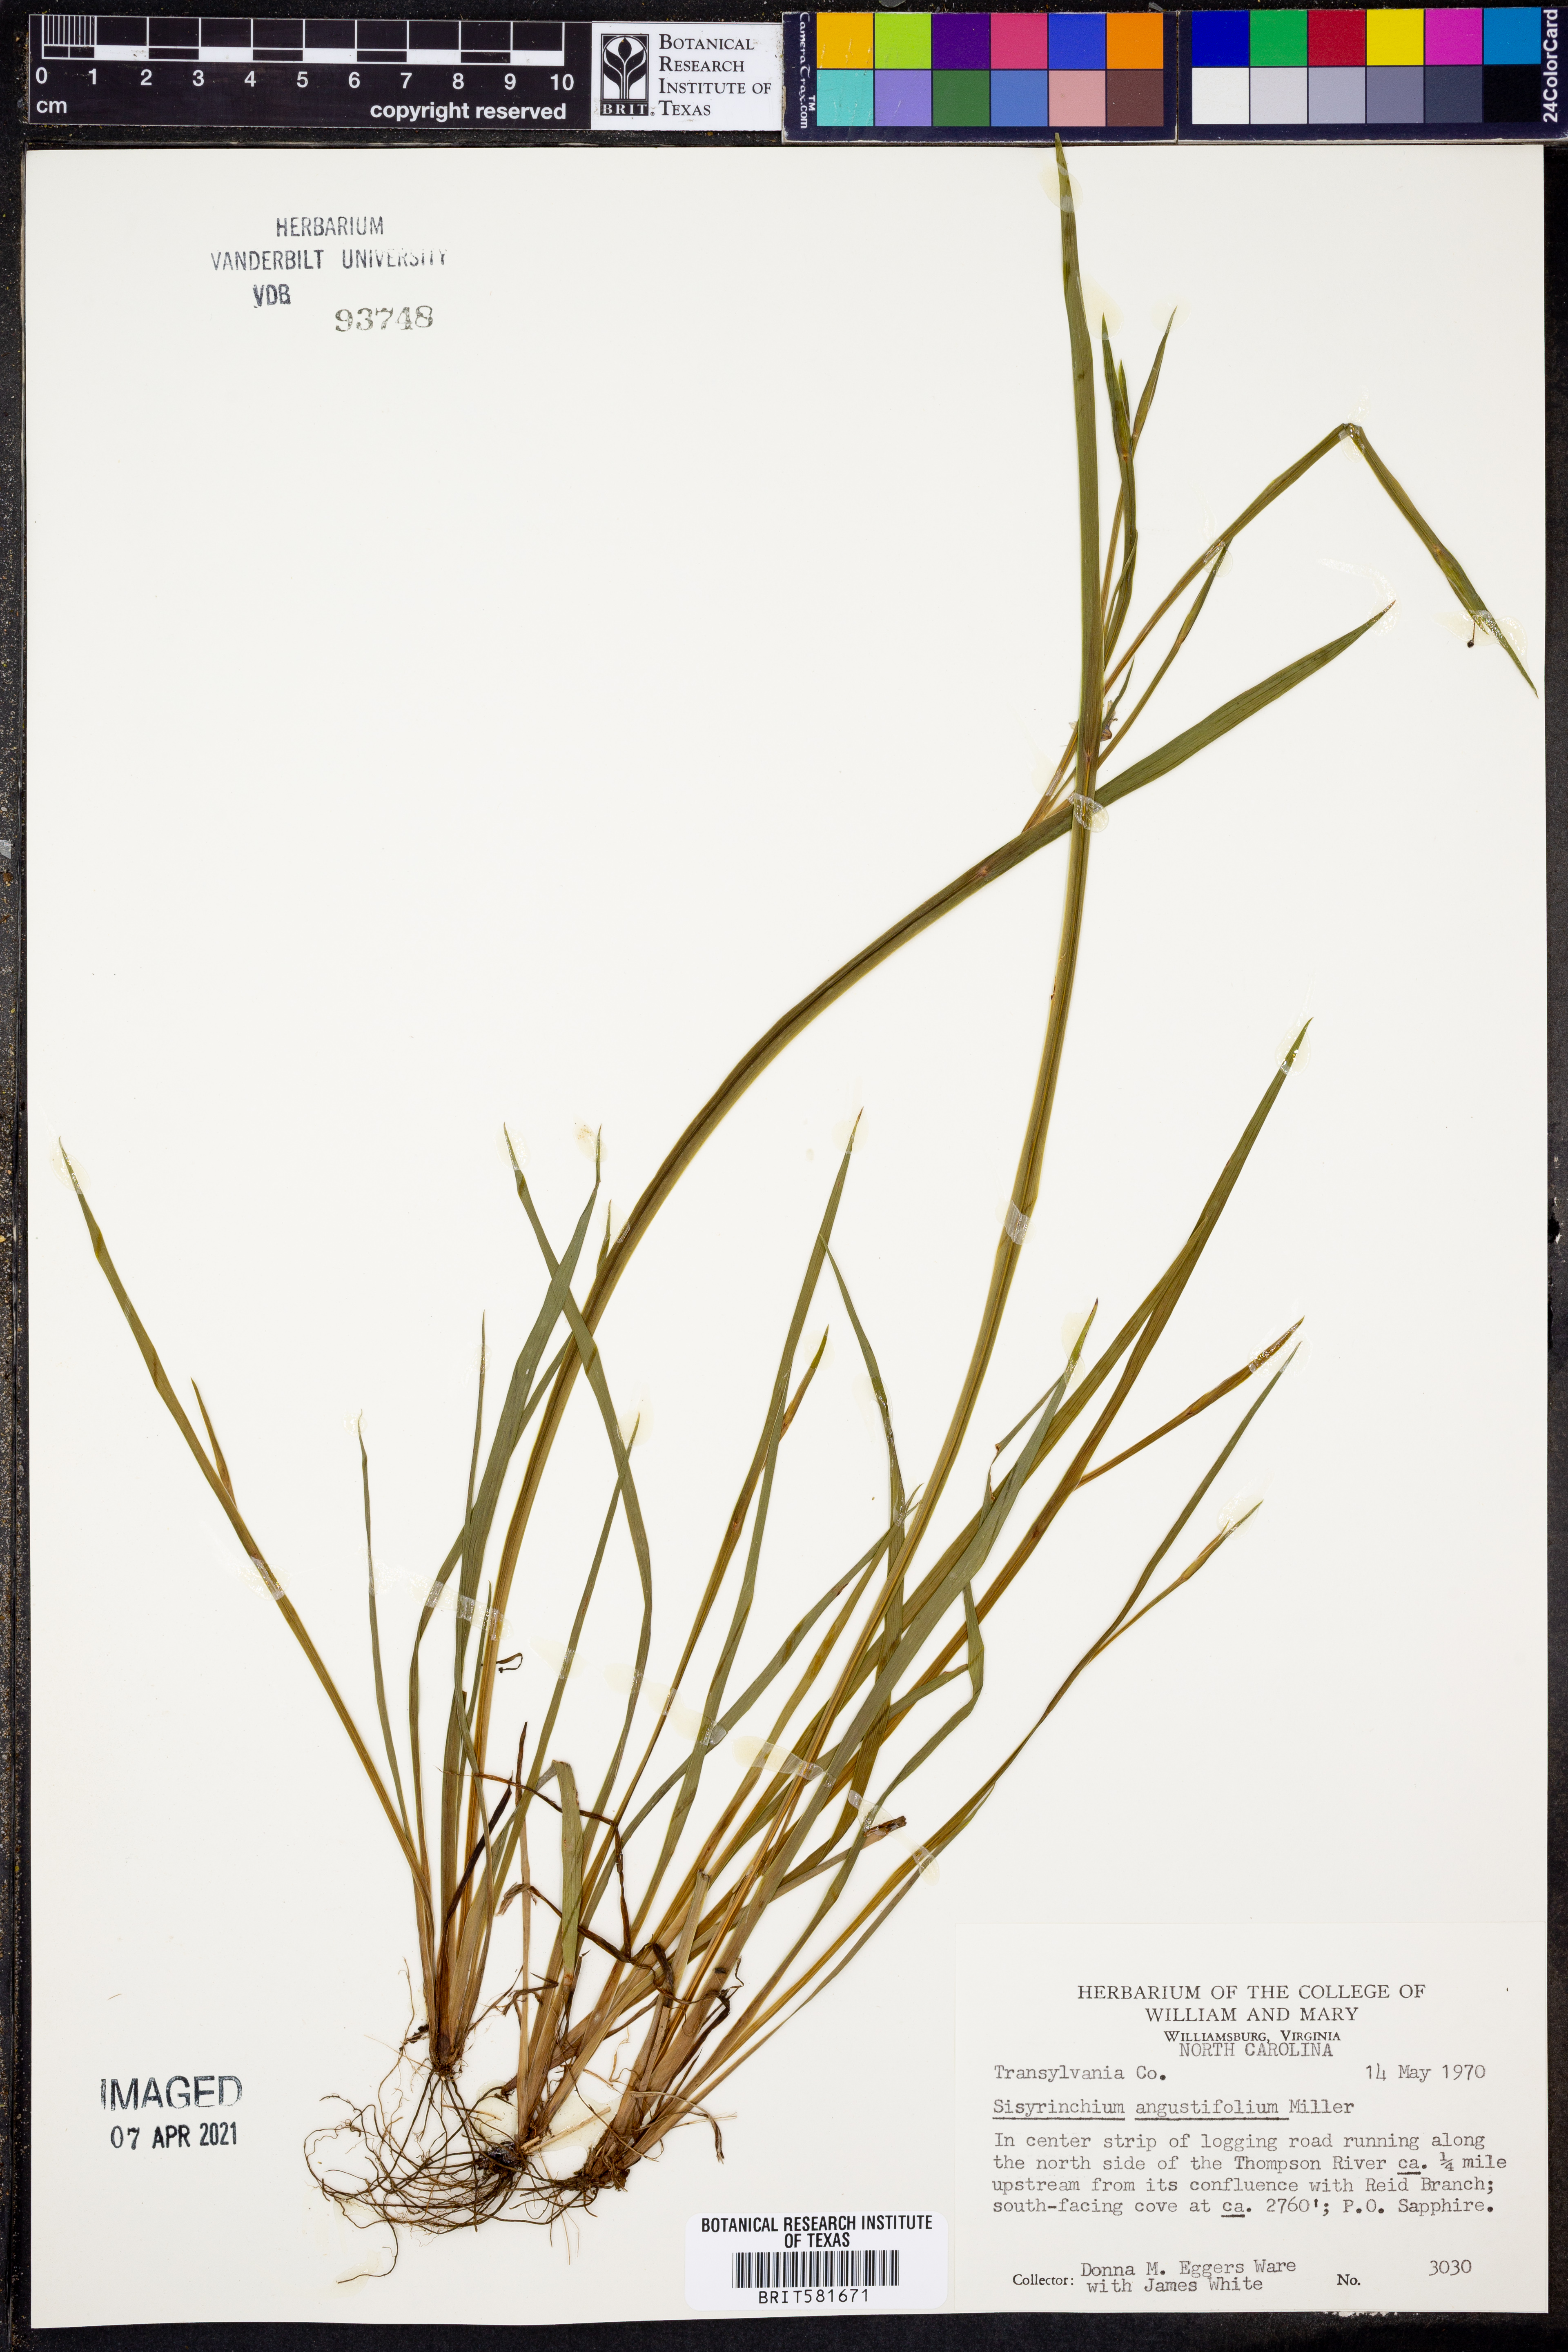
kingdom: Plantae
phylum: Tracheophyta
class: Liliopsida
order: Asparagales
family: Iridaceae
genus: Sisyrinchium
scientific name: Sisyrinchium angustifolium
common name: Narrow-leaf blue-eyed-grass
